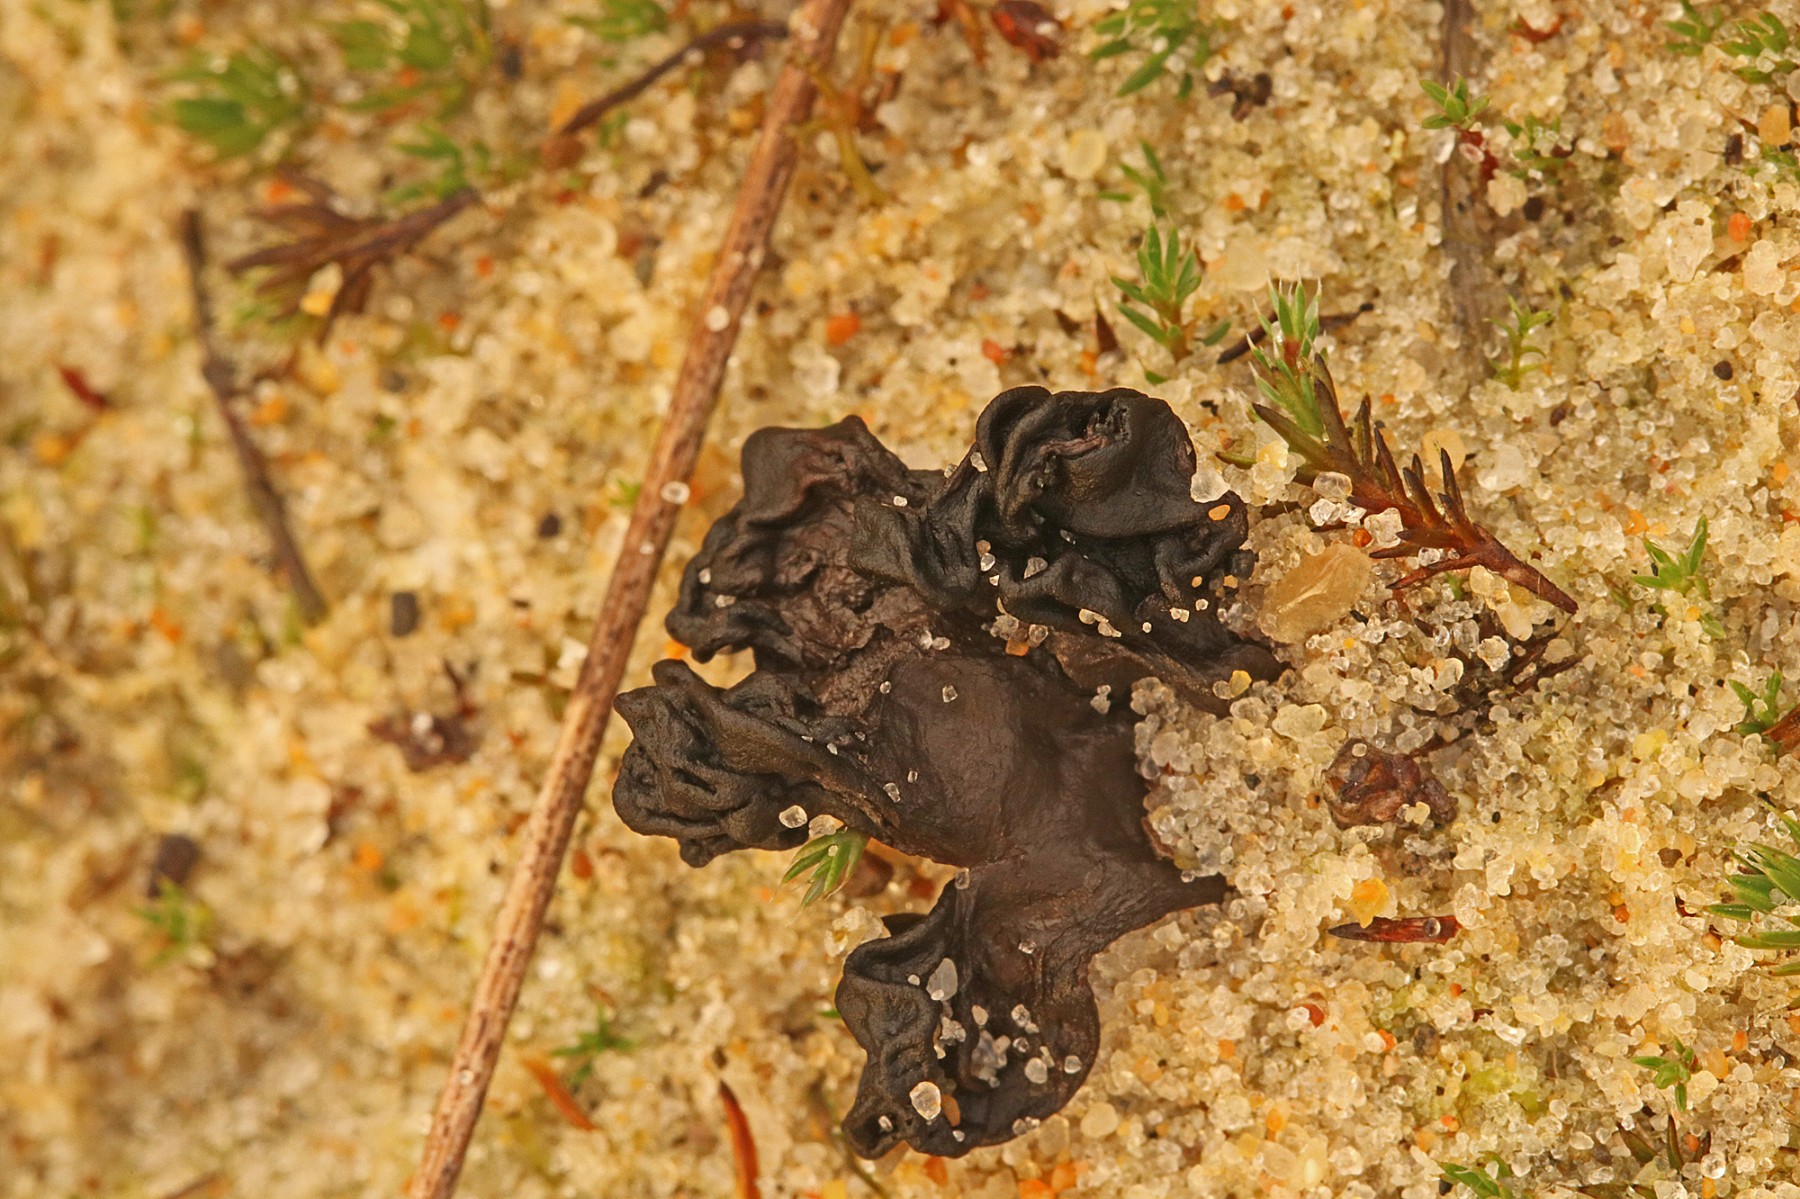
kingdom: Fungi
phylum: Ascomycota
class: Geoglossomycetes
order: Geoglossales
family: Geoglossaceae
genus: Sabuloglossum
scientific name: Sabuloglossum arenarium
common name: klit-jordtunge
